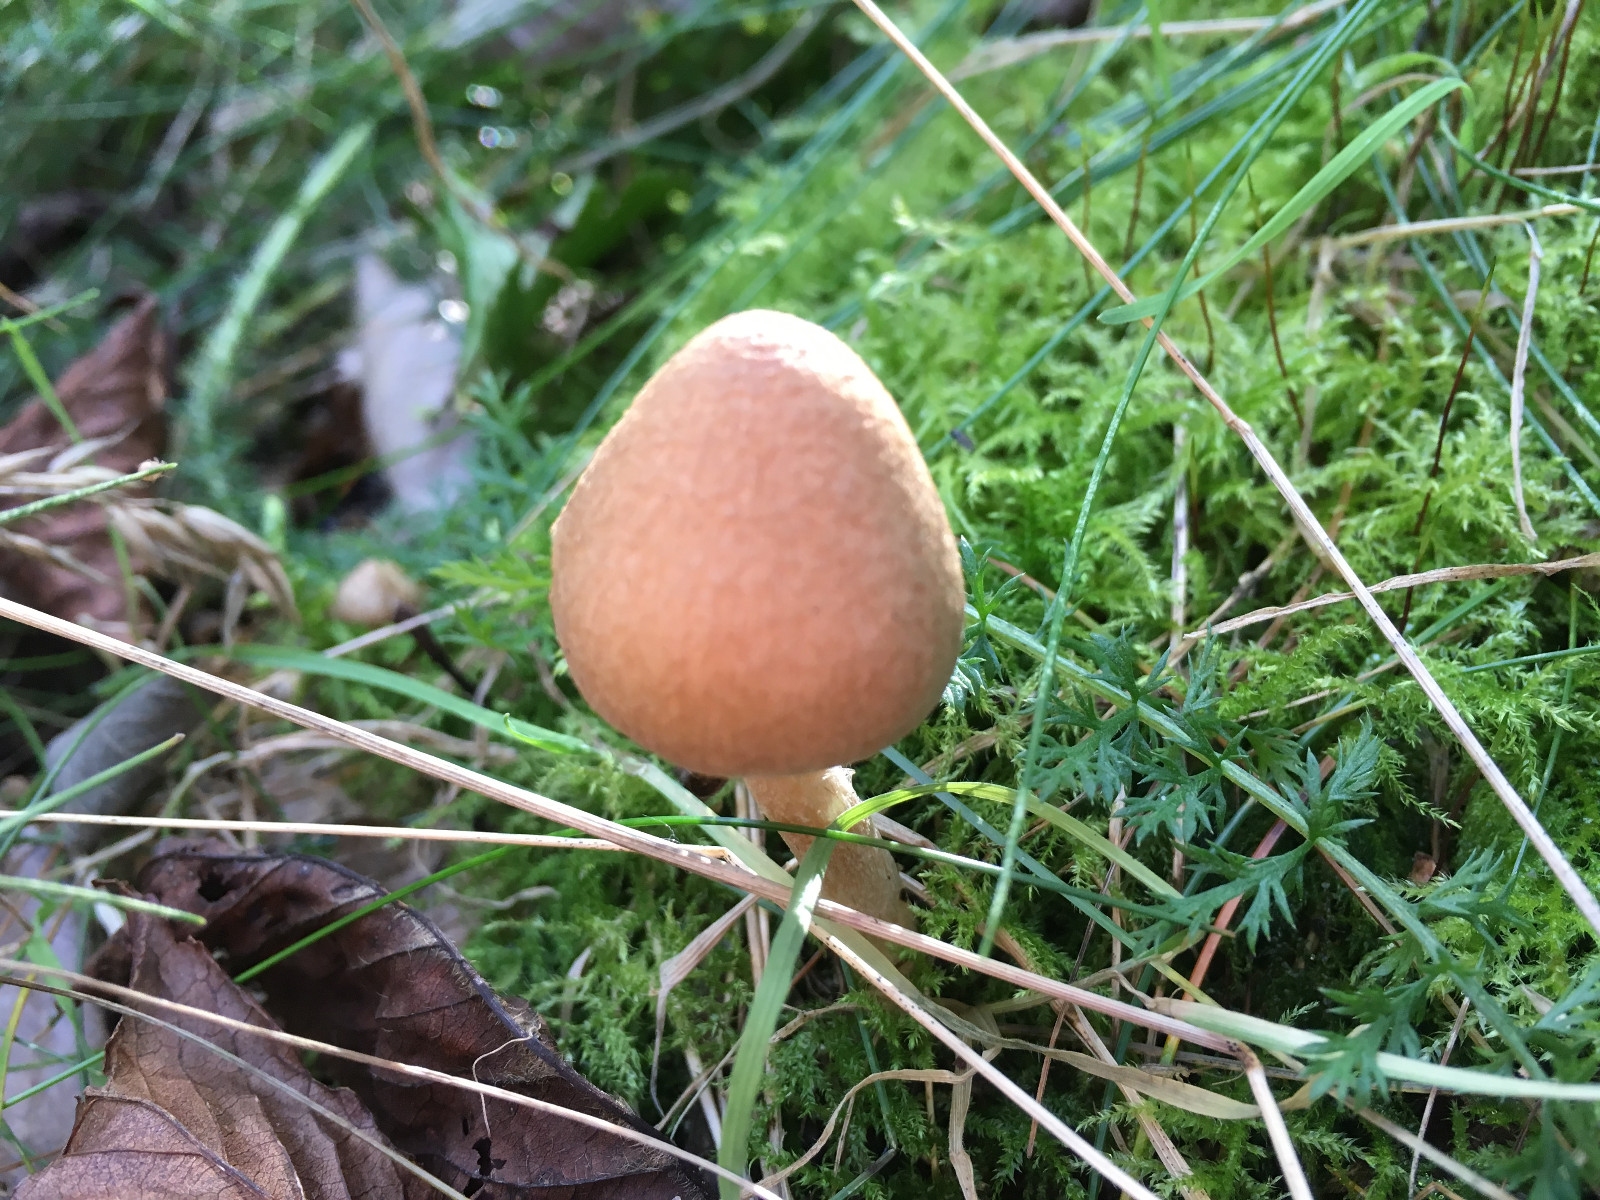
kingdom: Fungi
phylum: Basidiomycota
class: Agaricomycetes
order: Agaricales
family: Inocybaceae
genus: Inocybe
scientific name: Inocybe
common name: trævlhat
